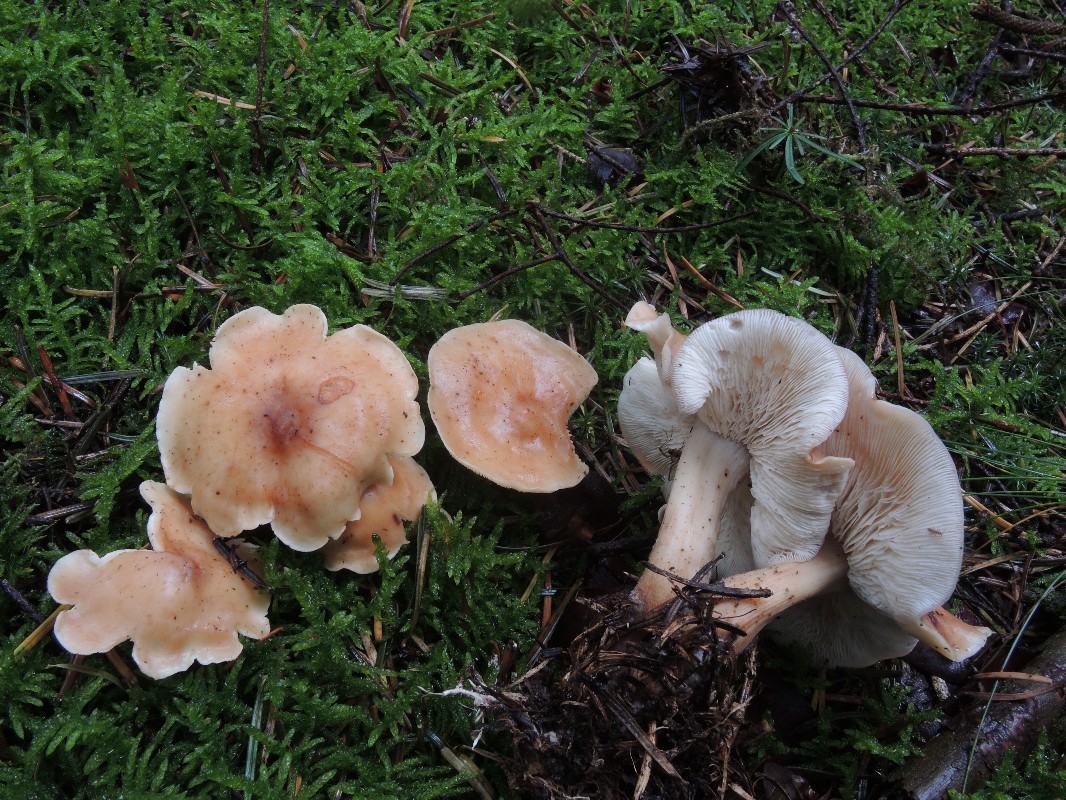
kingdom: Fungi
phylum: Basidiomycota
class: Agaricomycetes
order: Agaricales
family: Omphalotaceae
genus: Rhodocollybia
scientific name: Rhodocollybia prolixa
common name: snoet fladhat
